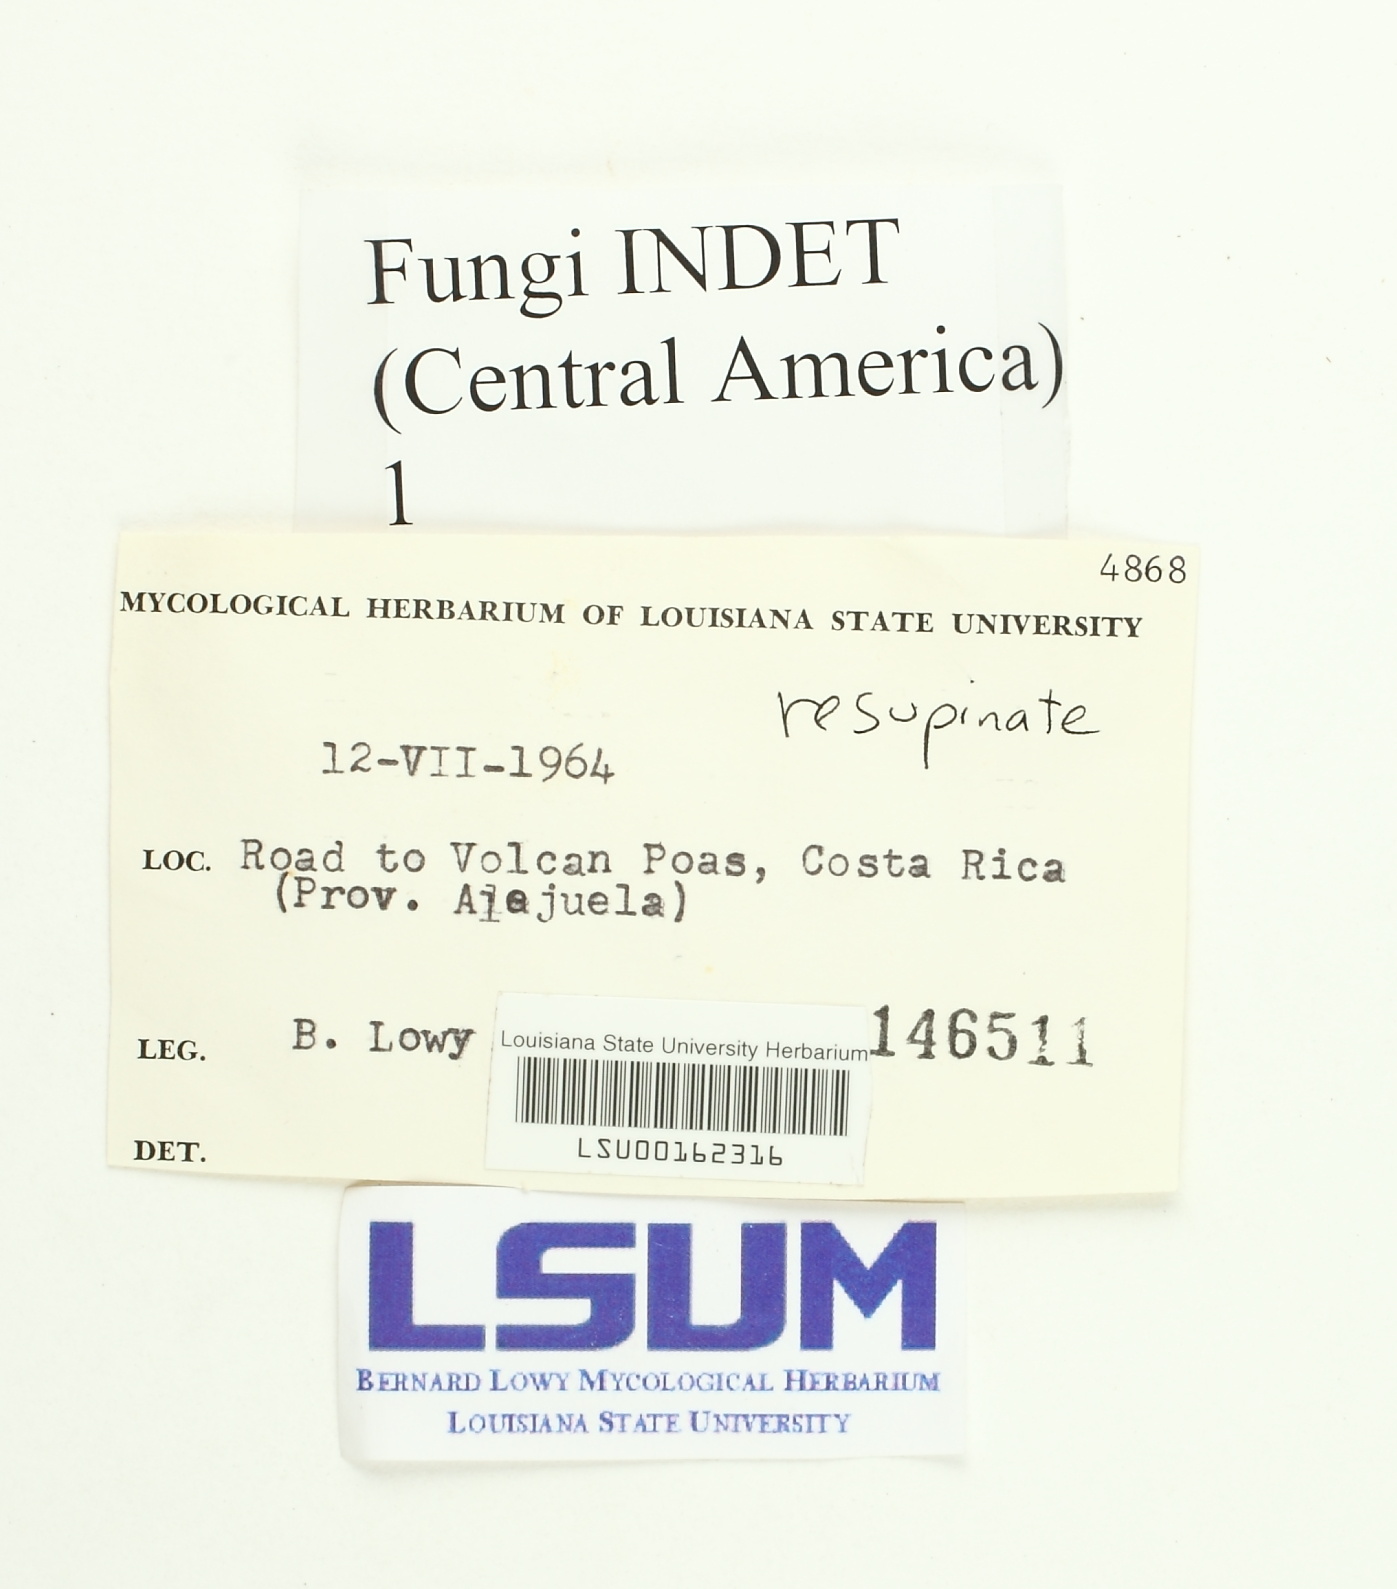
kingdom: Fungi
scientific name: Fungi
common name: Fungi
